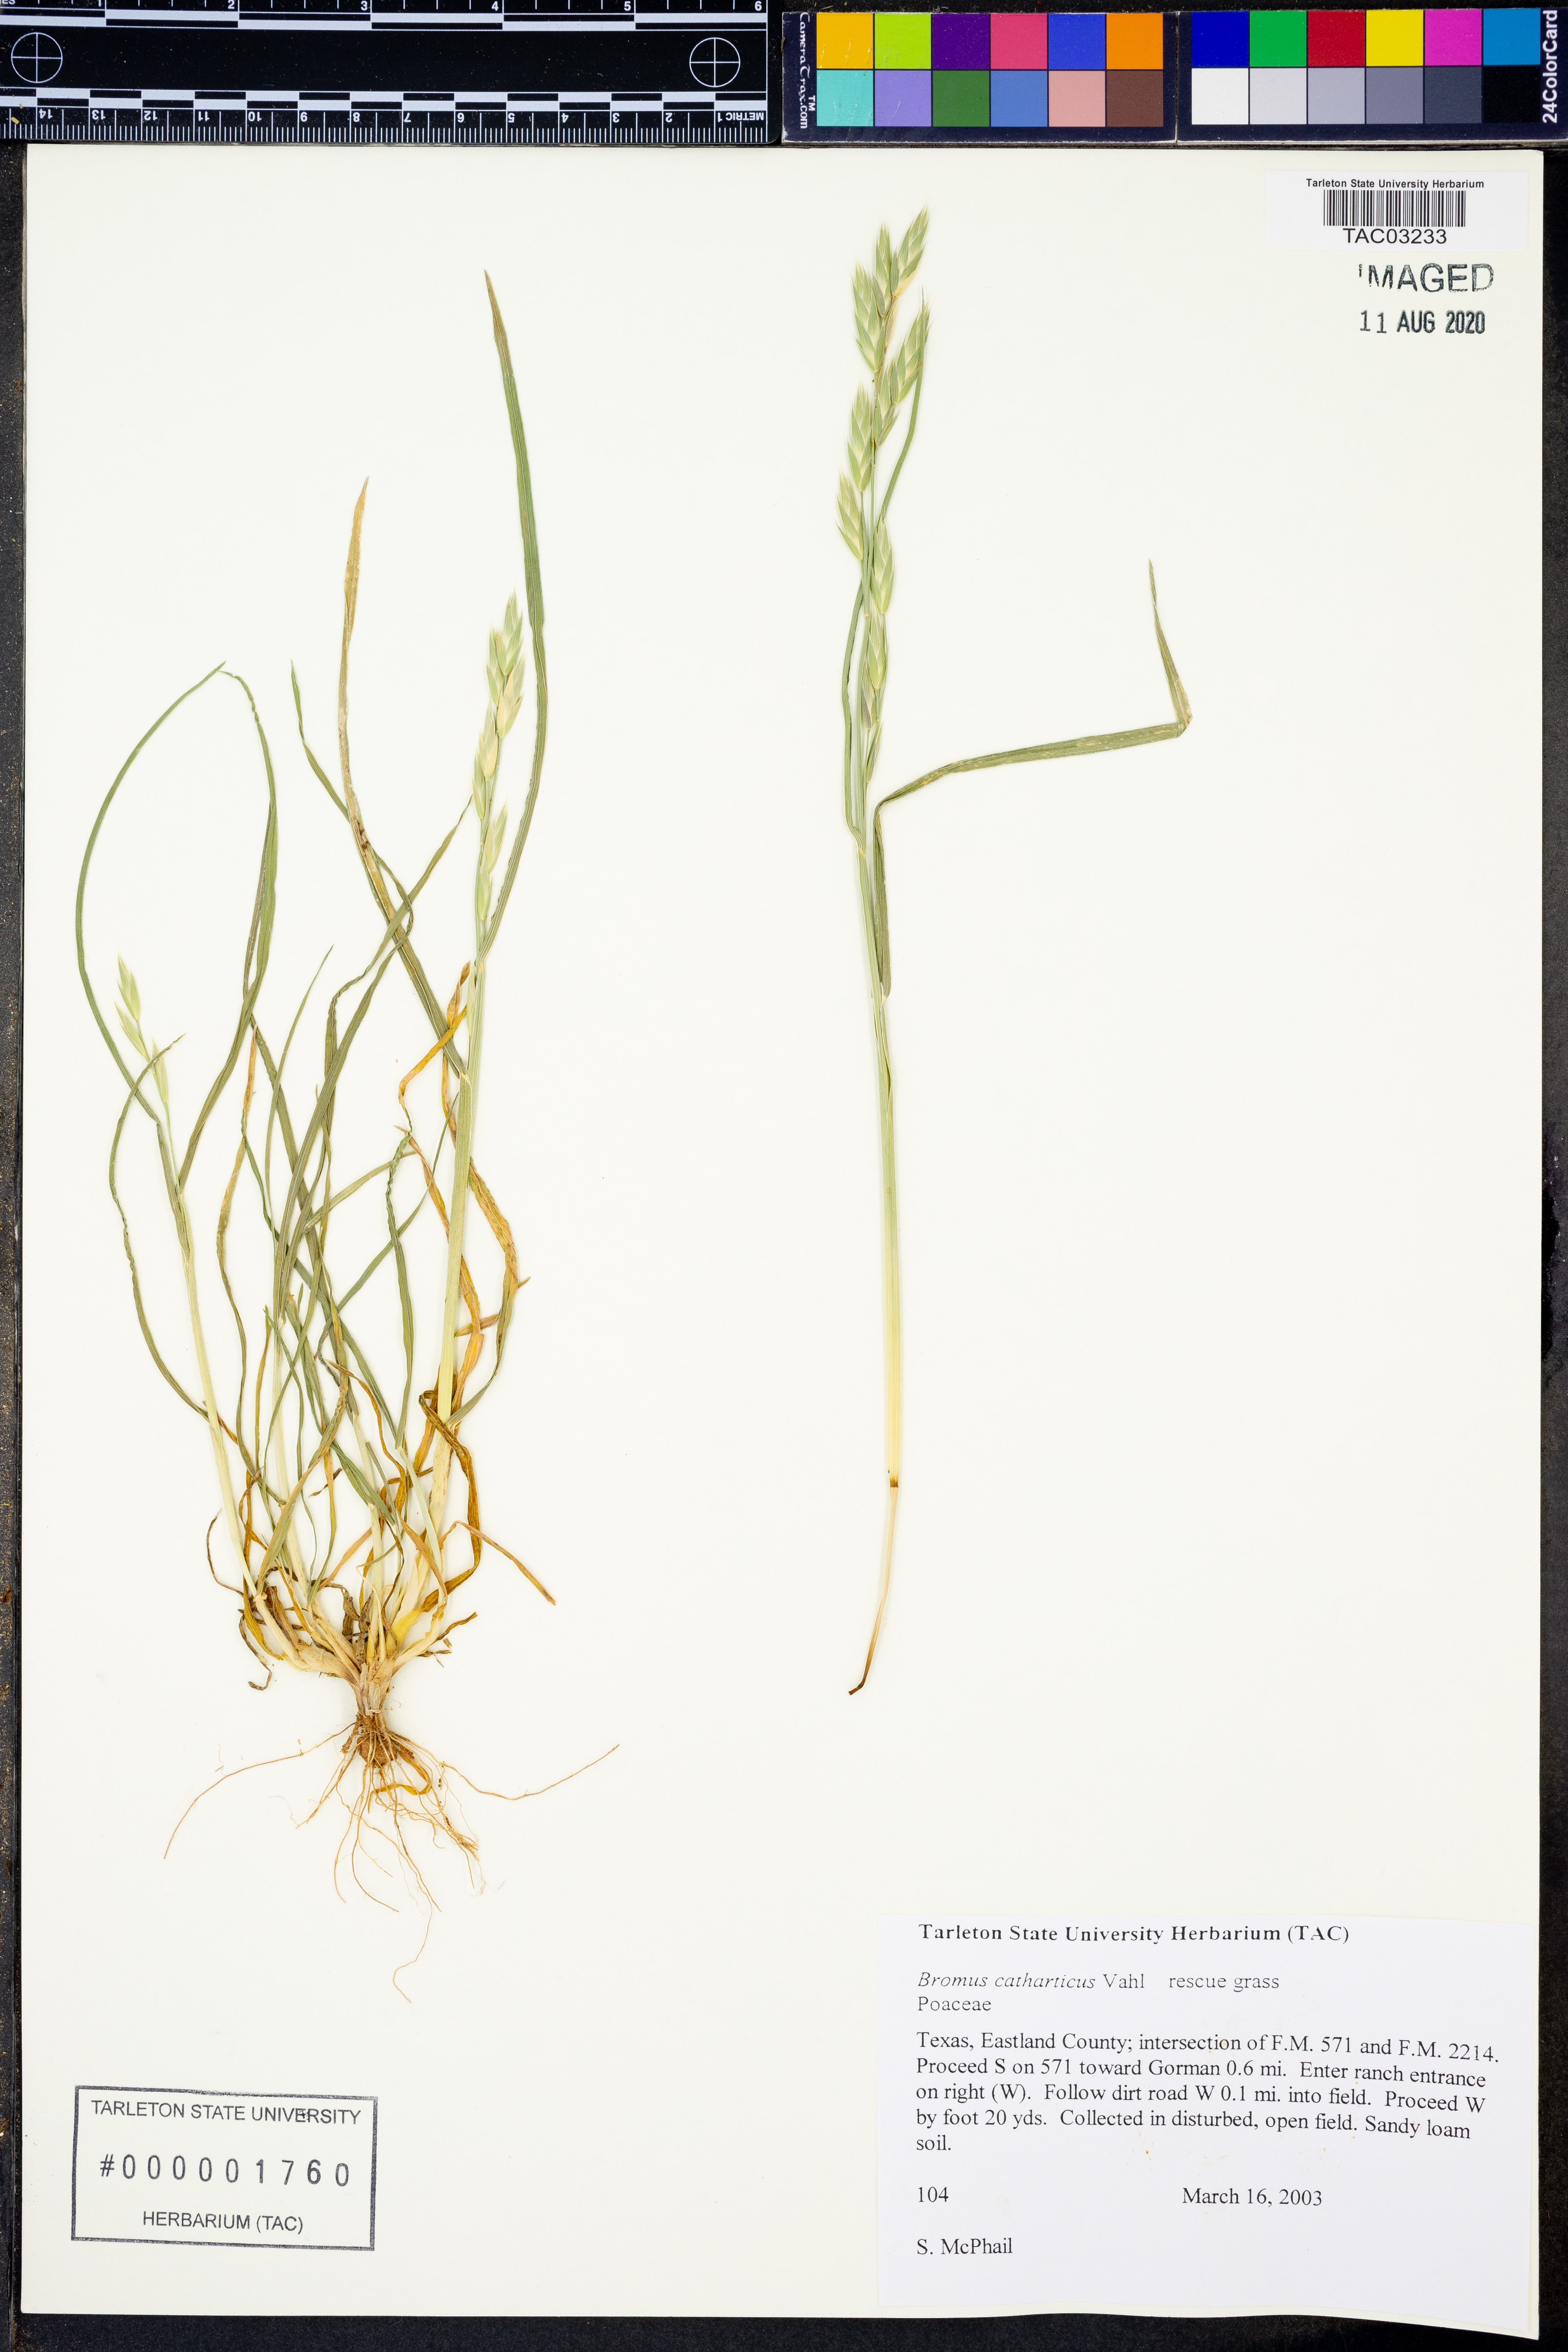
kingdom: Plantae
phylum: Tracheophyta
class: Liliopsida
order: Poales
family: Poaceae
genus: Bromus
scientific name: Bromus catharticus
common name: Rescuegrass
